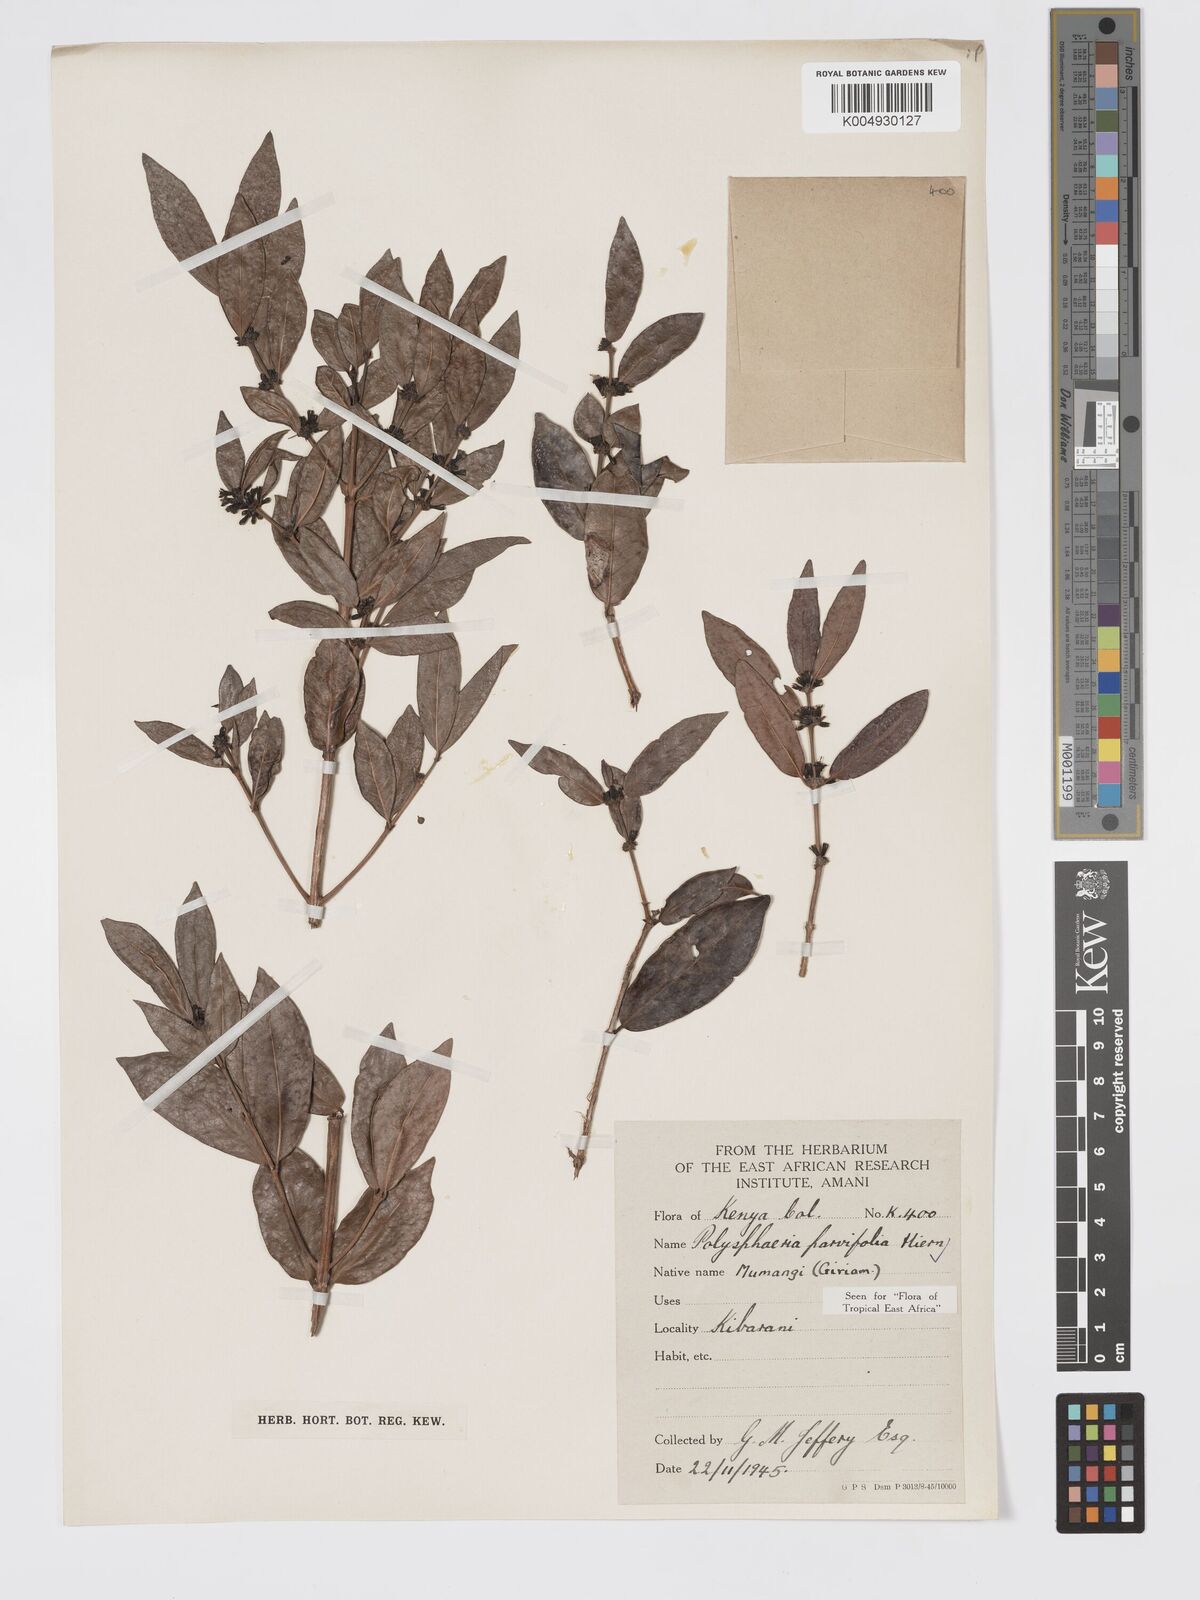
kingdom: Plantae
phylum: Tracheophyta
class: Magnoliopsida
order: Gentianales
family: Rubiaceae
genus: Polysphaeria
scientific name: Polysphaeria parvifolia
